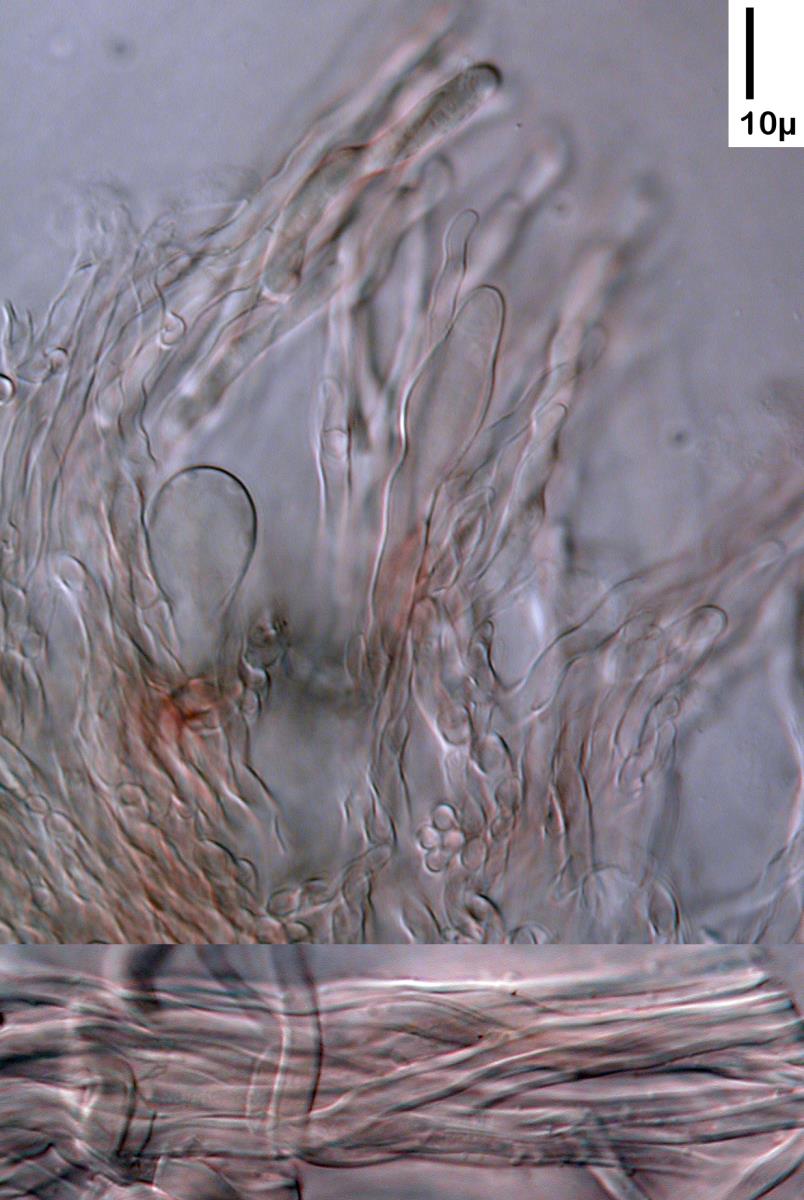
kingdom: Fungi
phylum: Basidiomycota
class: Agaricomycetes
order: Agaricales
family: Cyphellaceae
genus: Chondrostereum
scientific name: Chondrostereum purpureum
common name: Silver leaf disease
